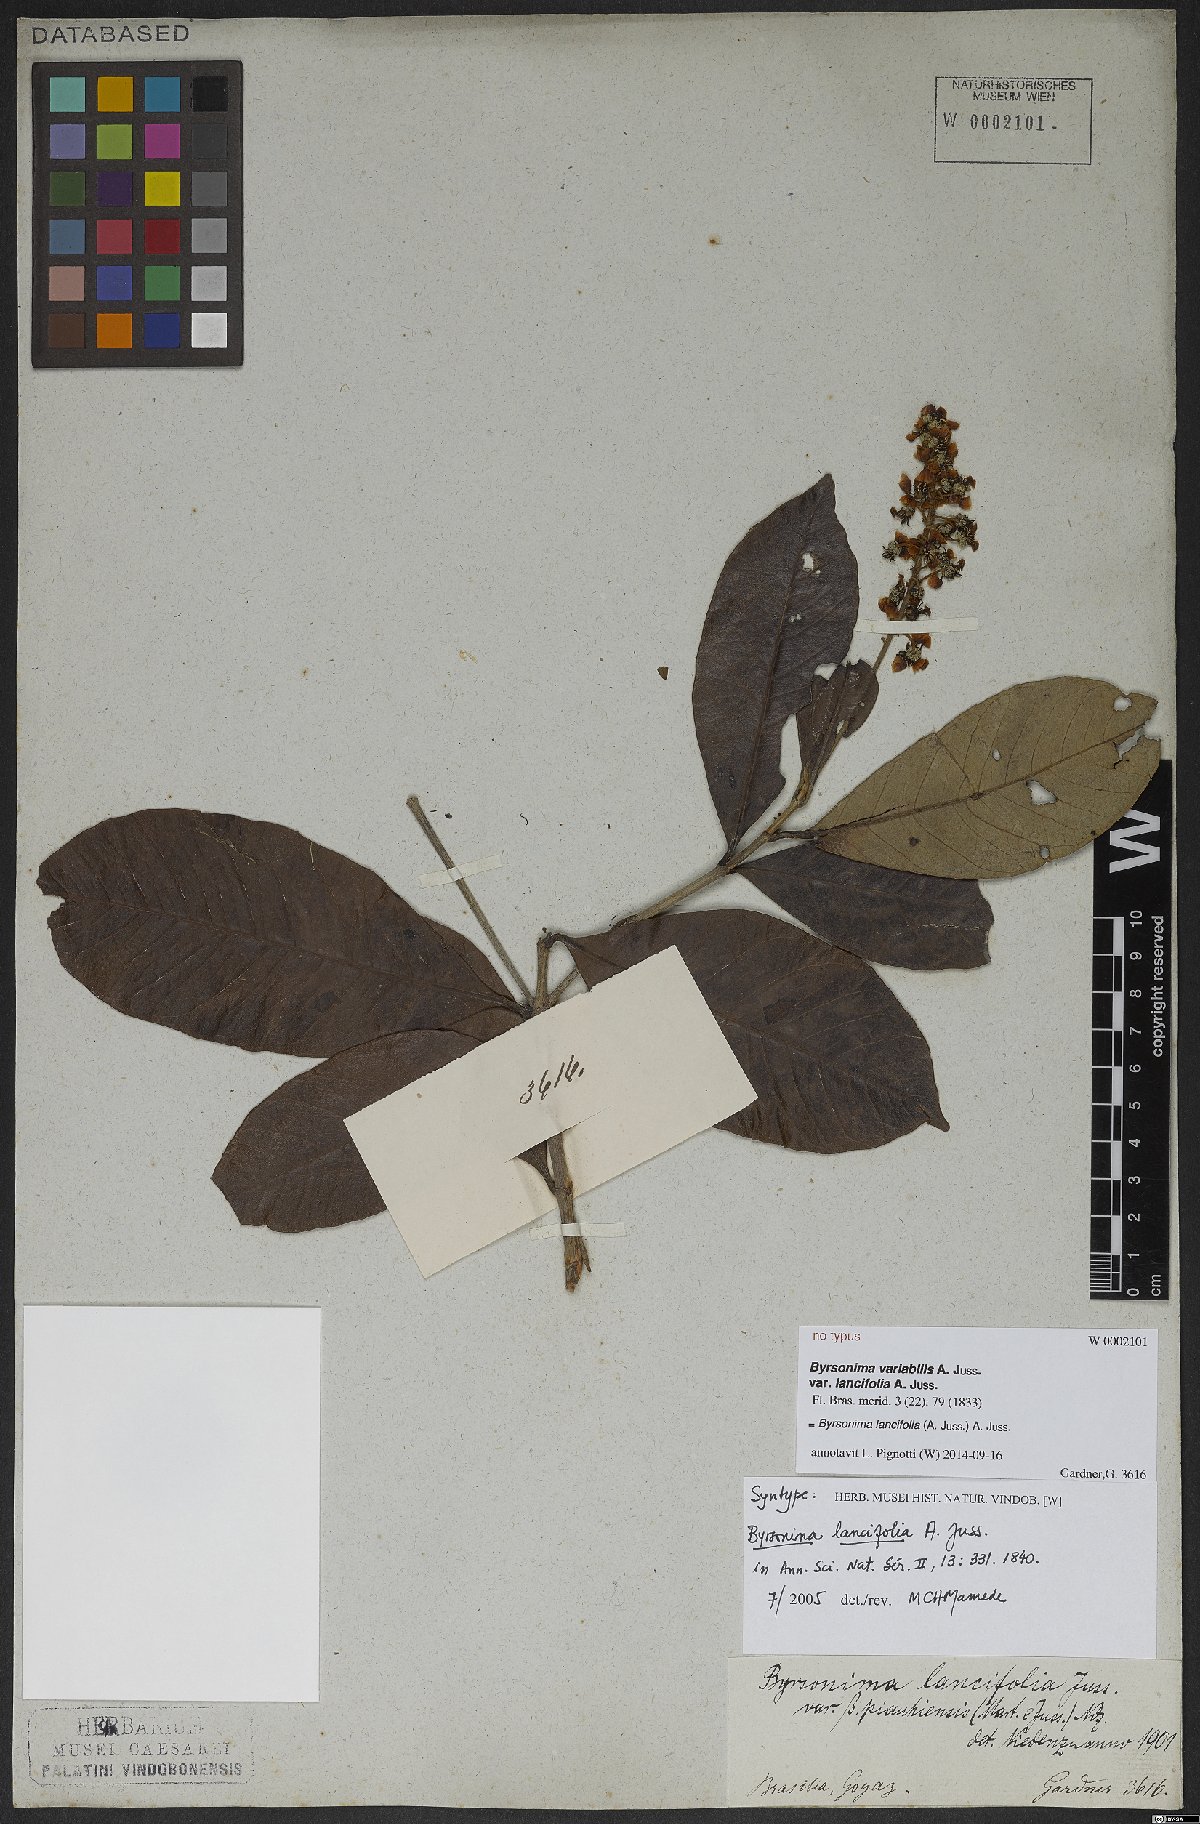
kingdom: Plantae
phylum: Tracheophyta
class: Magnoliopsida
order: Malpighiales
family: Malpighiaceae
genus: Byrsonima
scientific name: Byrsonima lancifolia
